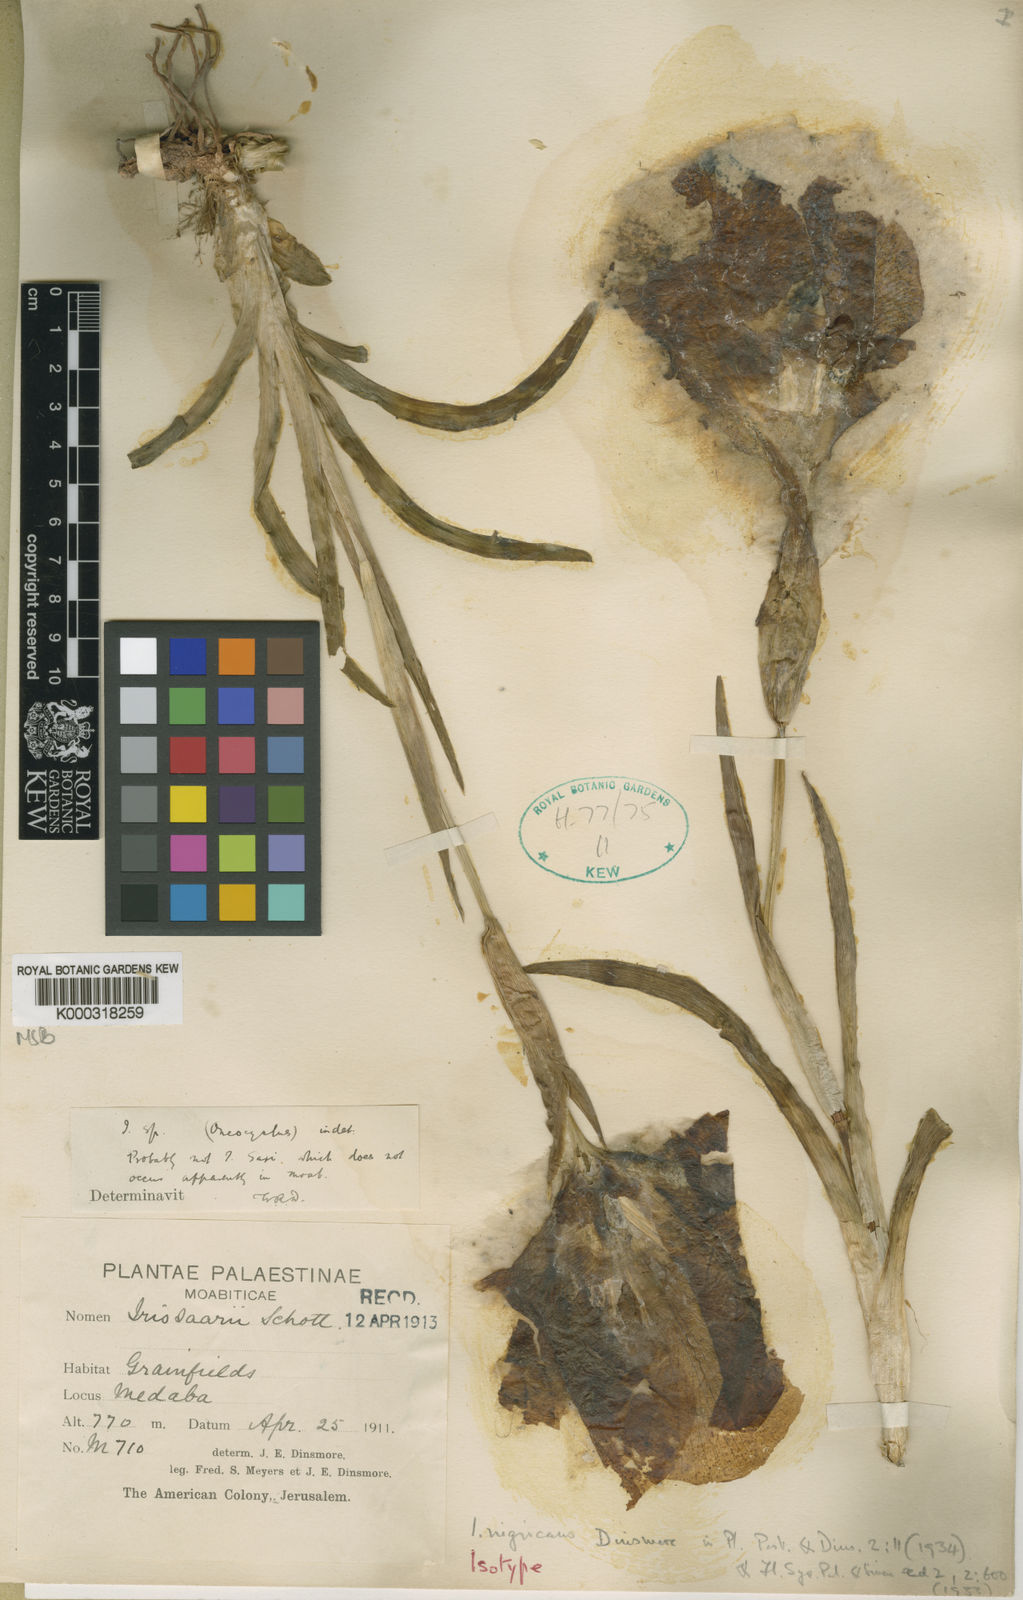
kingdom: Plantae
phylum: Tracheophyta
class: Liliopsida
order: Asparagales
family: Iridaceae
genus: Iris
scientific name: Iris nigricans
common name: Black iris
